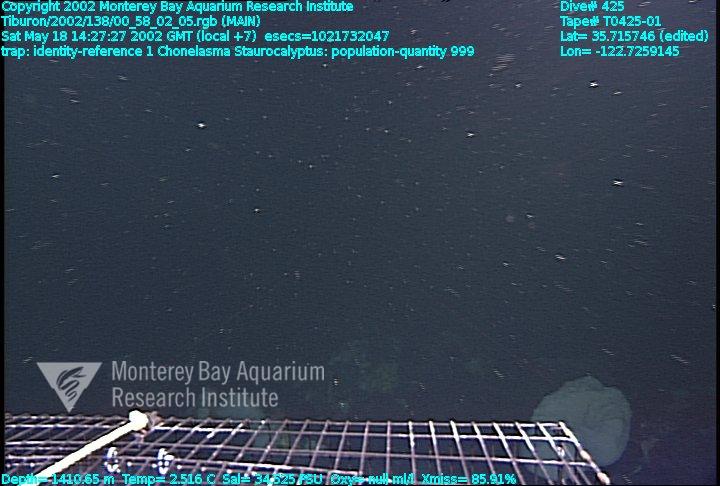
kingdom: Animalia
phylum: Porifera
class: Hexactinellida
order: Lyssacinosida
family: Rossellidae
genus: Staurocalyptus
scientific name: Staurocalyptus
